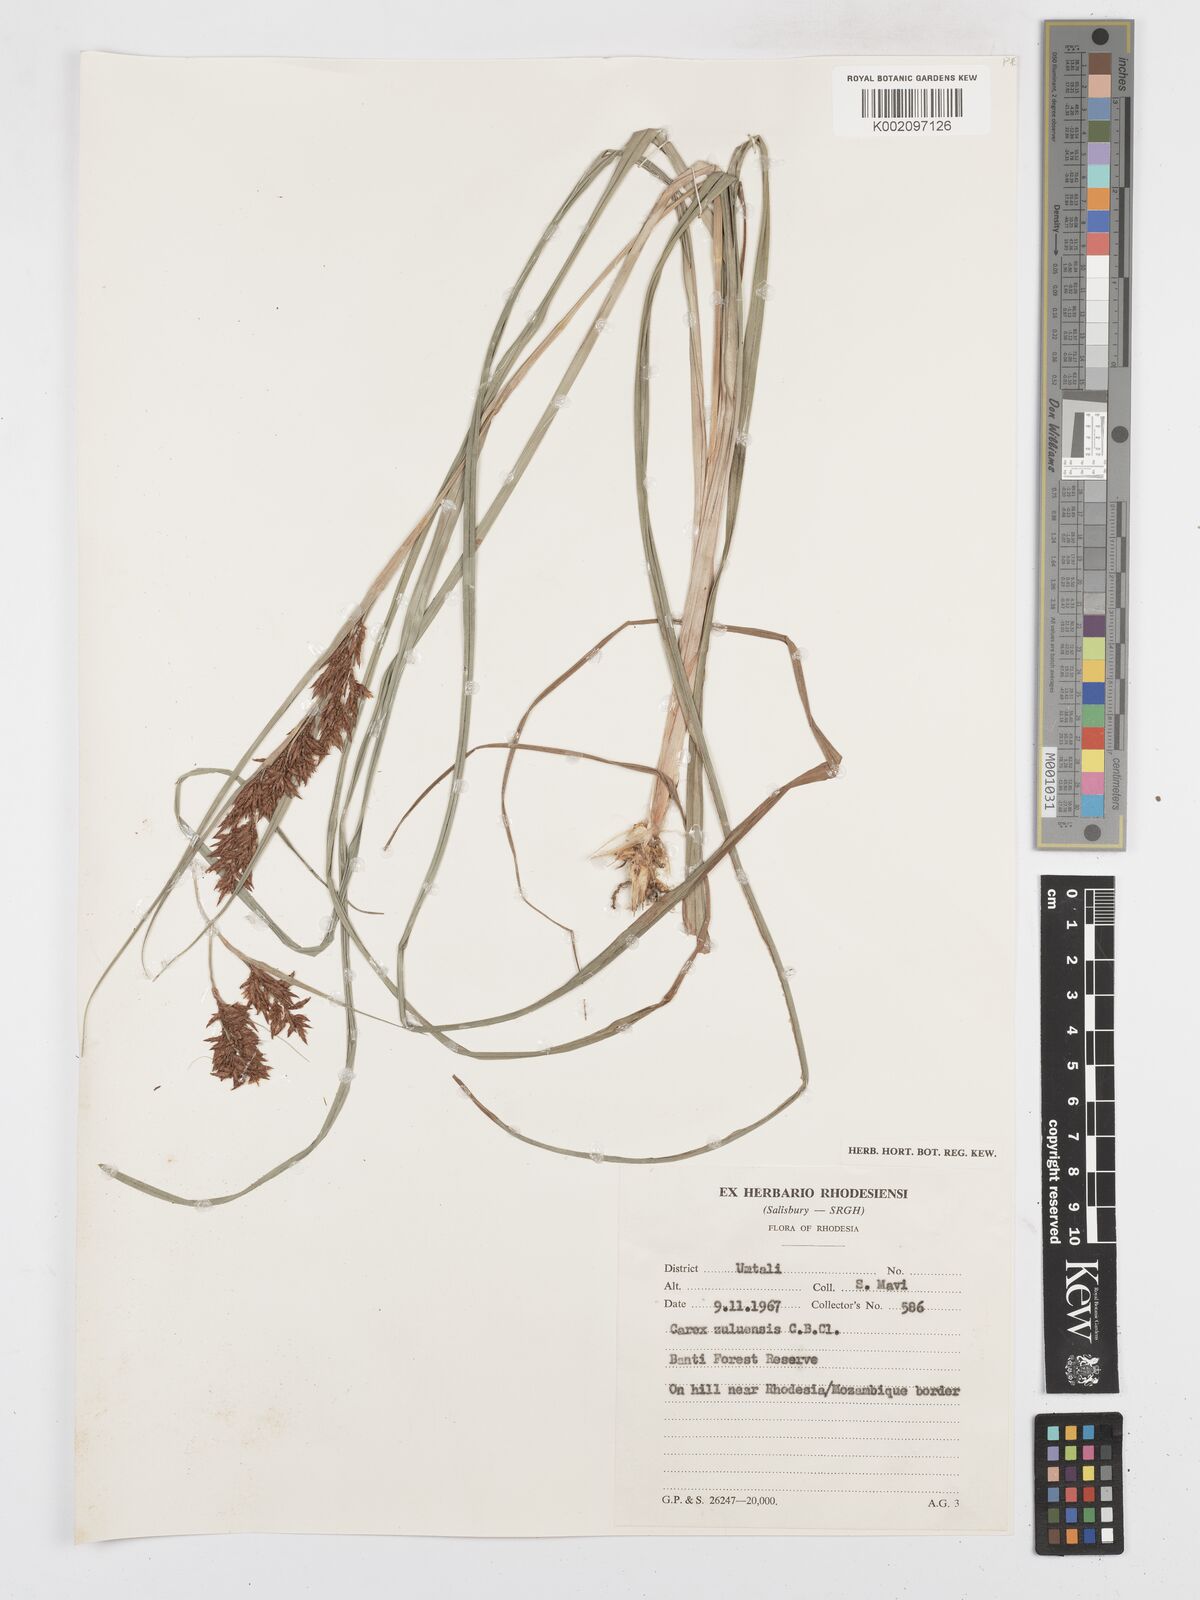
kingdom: Plantae
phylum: Tracheophyta
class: Liliopsida
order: Poales
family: Cyperaceae
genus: Carex
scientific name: Carex steudneri
